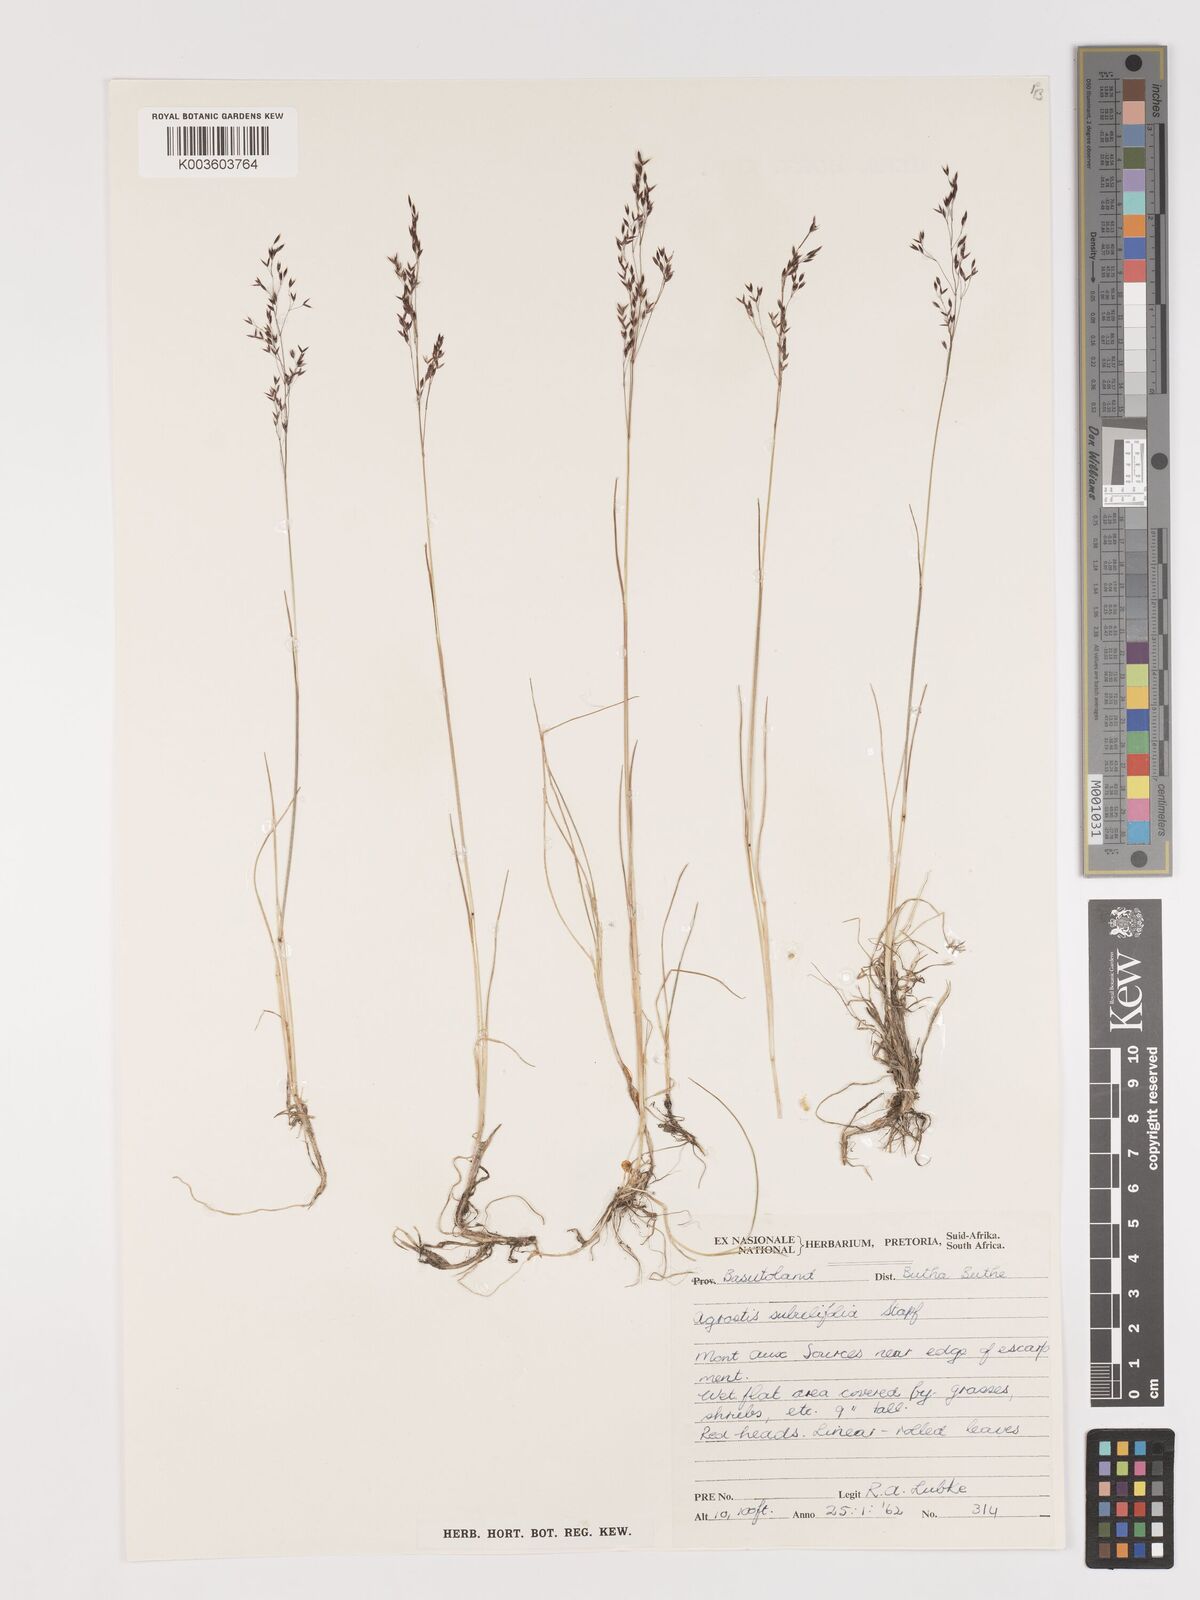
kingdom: Plantae
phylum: Tracheophyta
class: Liliopsida
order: Poales
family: Poaceae
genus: Agrostis
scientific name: Agrostis subulifolia
